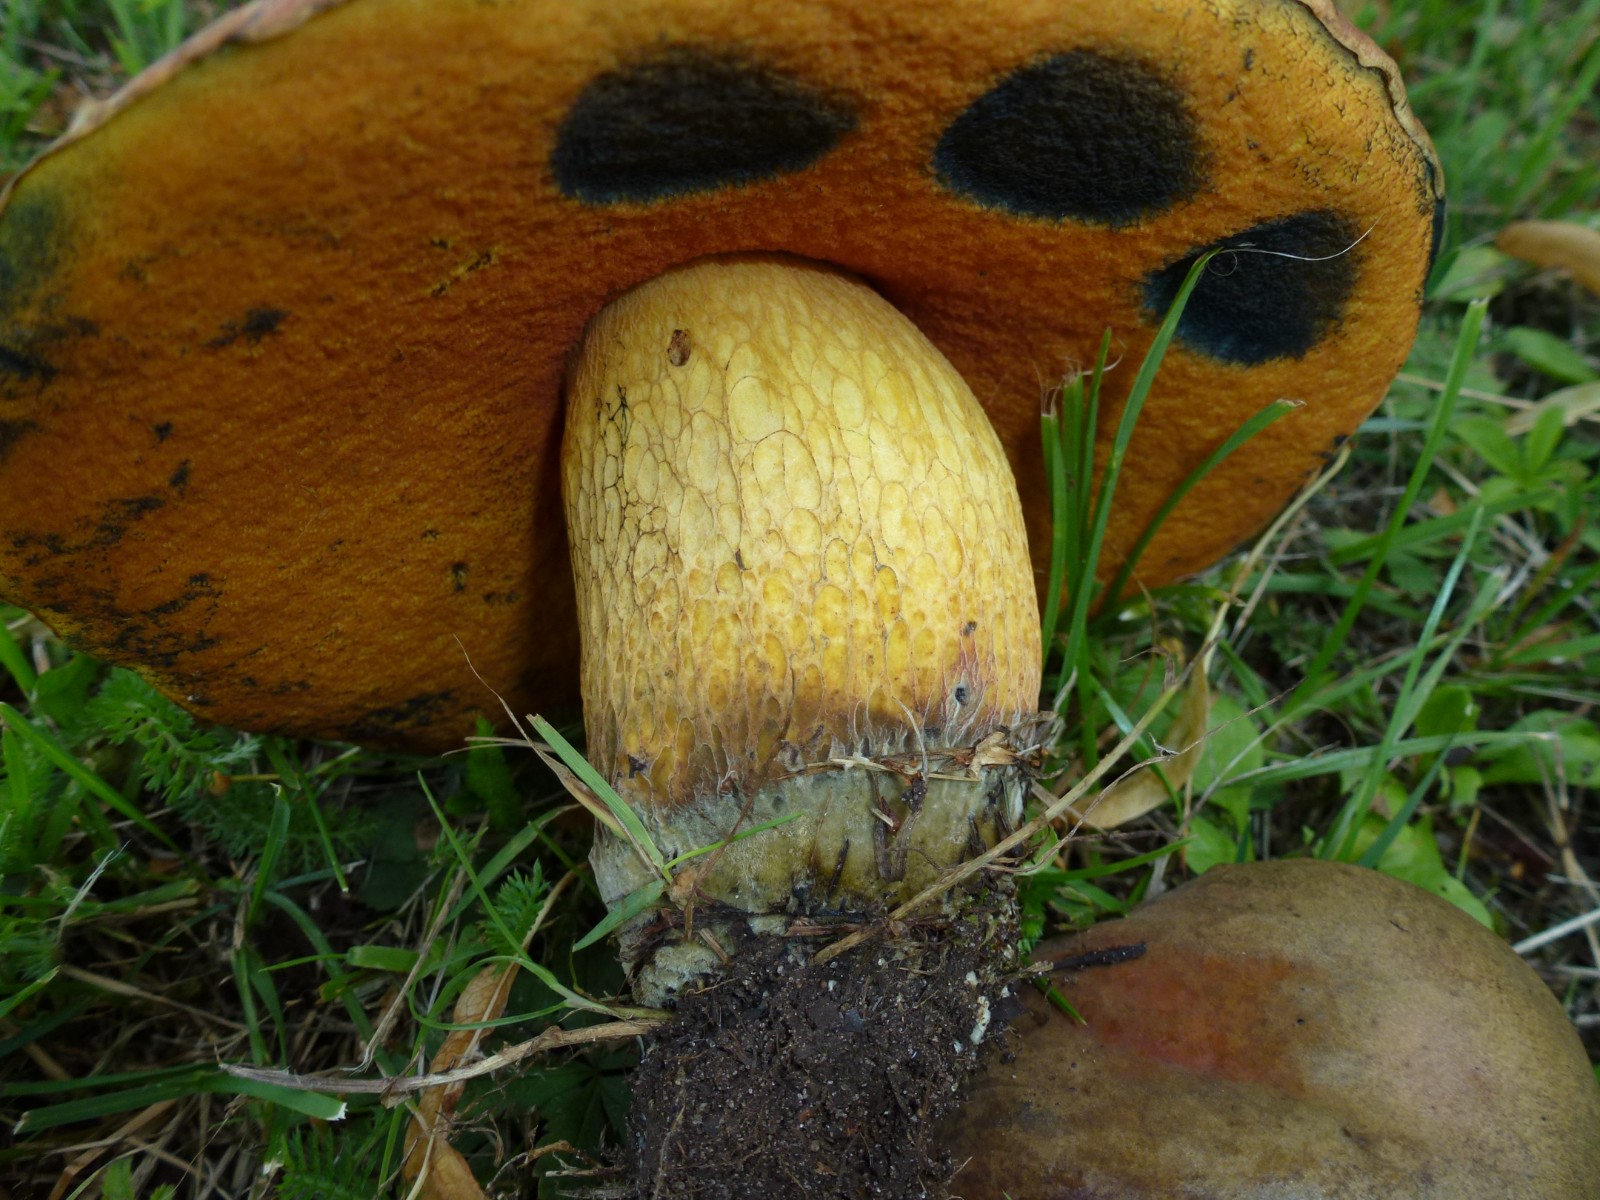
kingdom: Fungi
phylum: Basidiomycota
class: Agaricomycetes
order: Boletales
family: Boletaceae
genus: Suillellus
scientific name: Suillellus luridus
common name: netstokket indigorørhat
